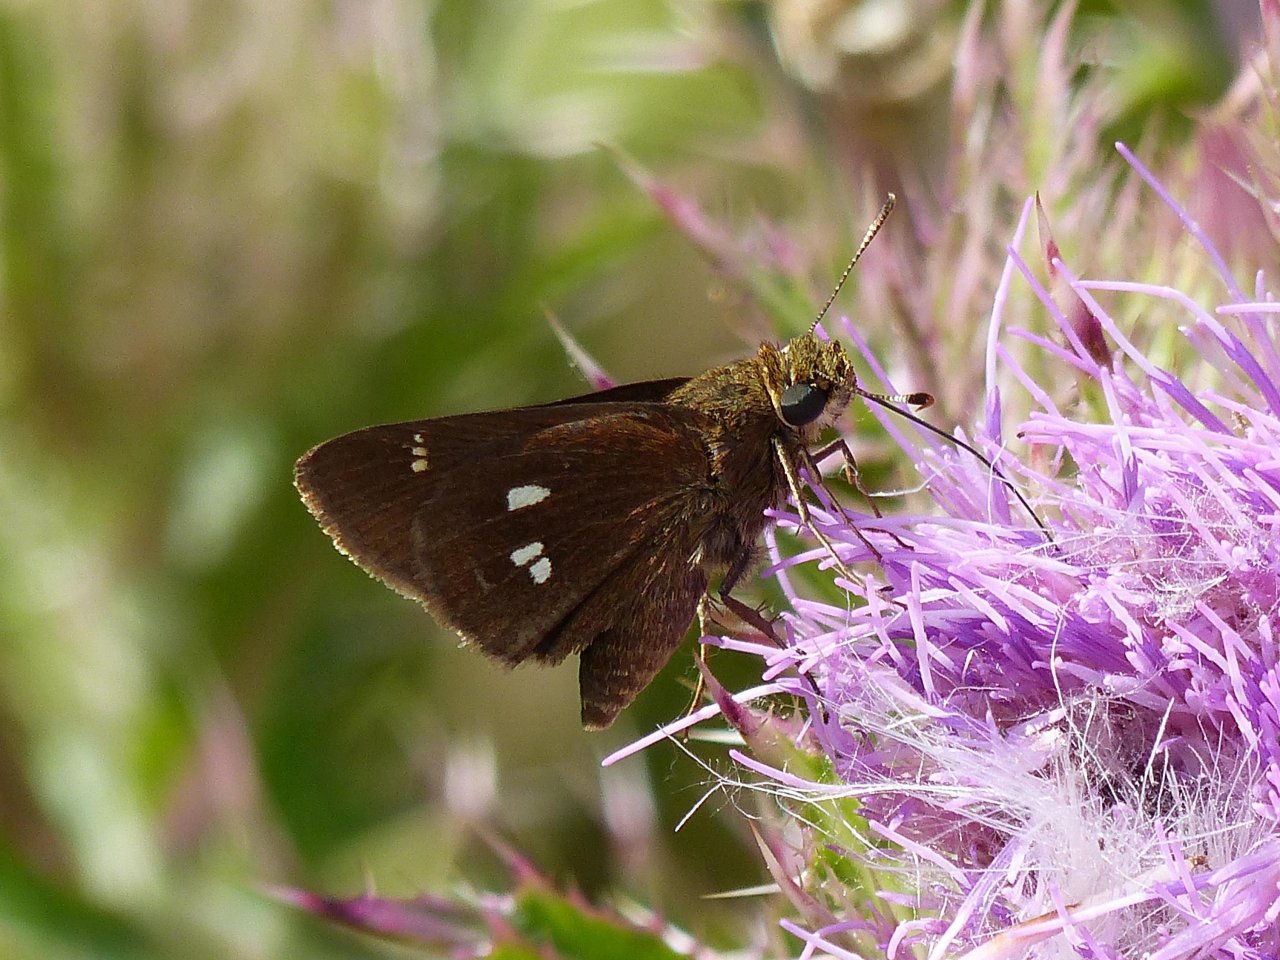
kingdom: Animalia
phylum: Arthropoda
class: Insecta
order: Lepidoptera
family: Hesperiidae
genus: Oligoria
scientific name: Oligoria maculata
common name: Twin-spot Skipper
